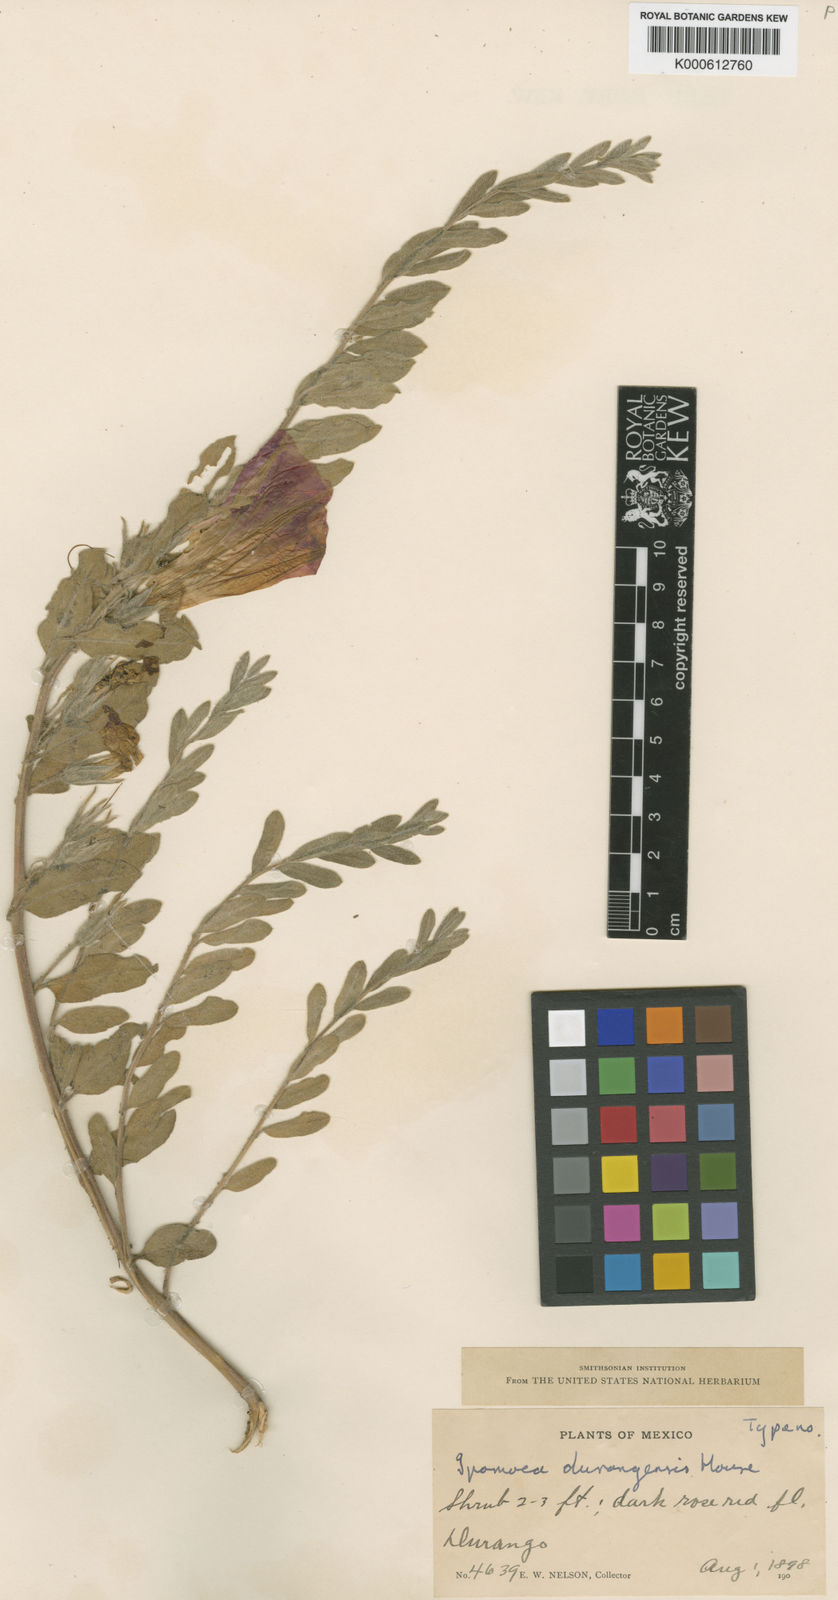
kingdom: Plantae
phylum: Tracheophyta
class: Magnoliopsida
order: Solanales
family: Convolvulaceae
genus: Ipomoea
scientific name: Ipomoea durangensis
